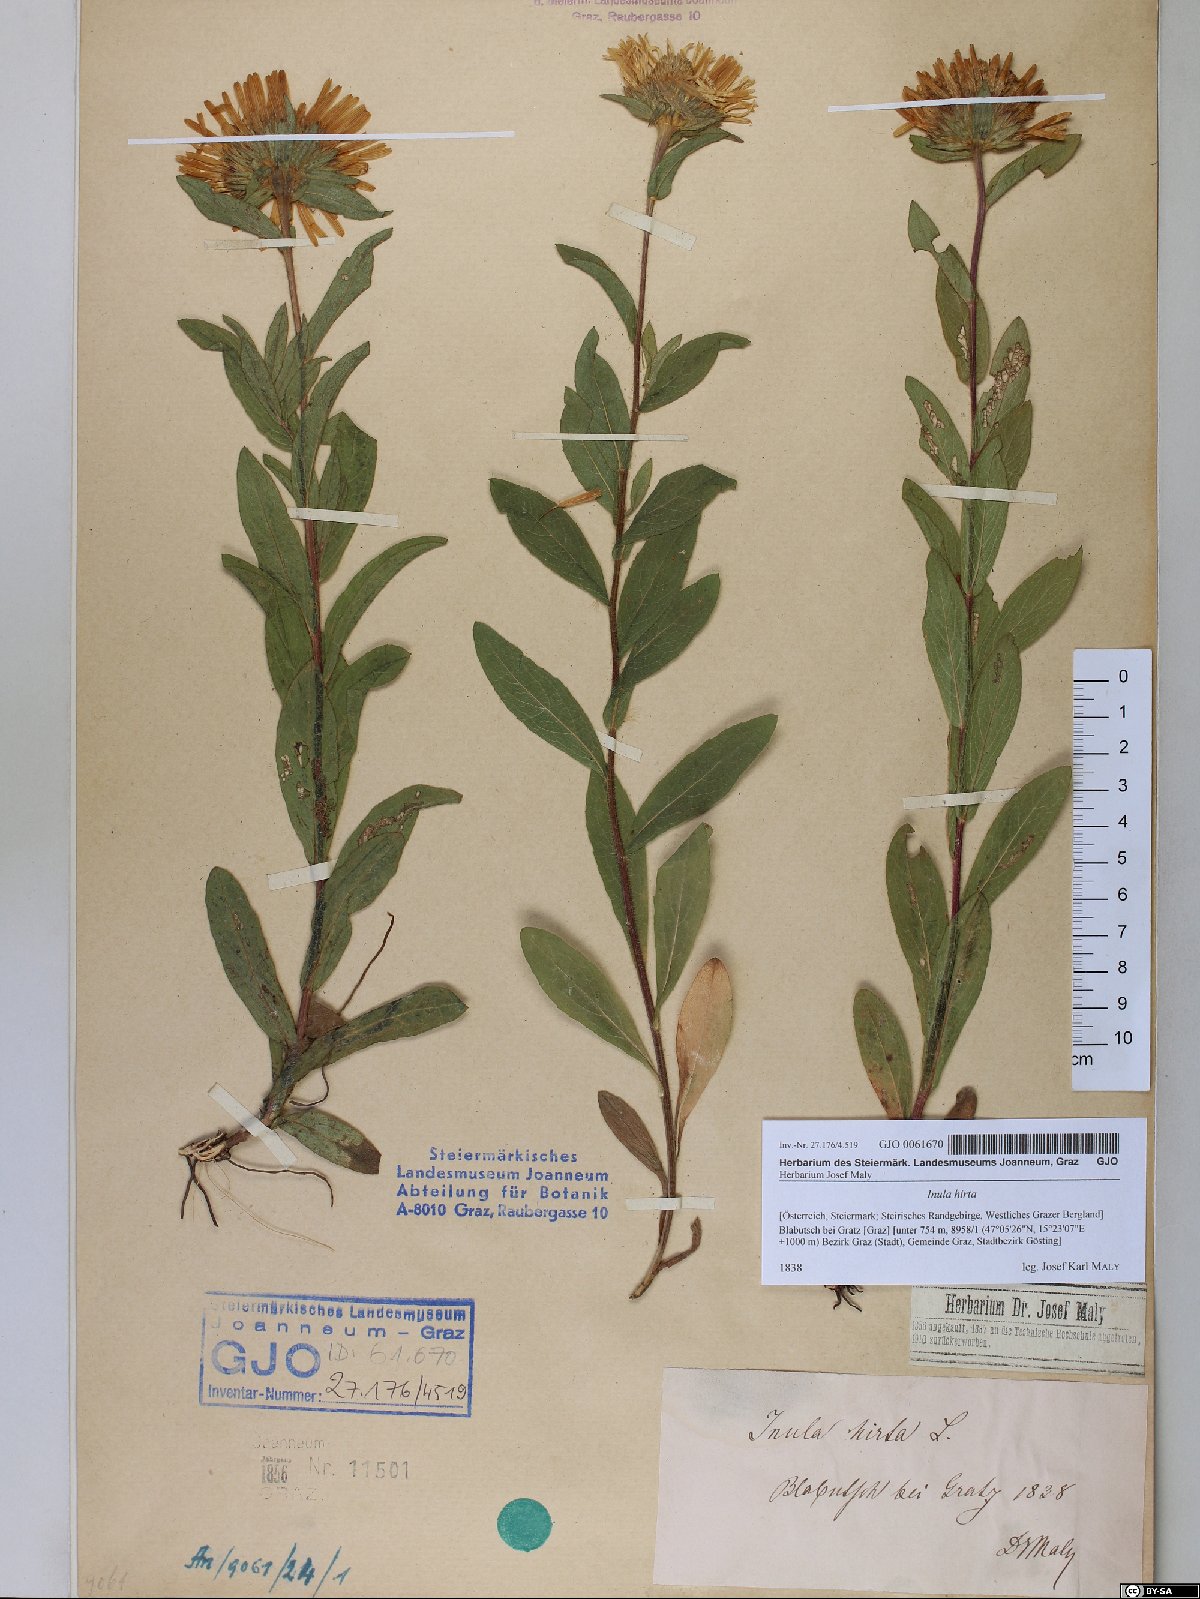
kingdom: Plantae
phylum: Tracheophyta
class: Magnoliopsida
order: Asterales
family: Asteraceae
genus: Pentanema
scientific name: Pentanema hirtum
